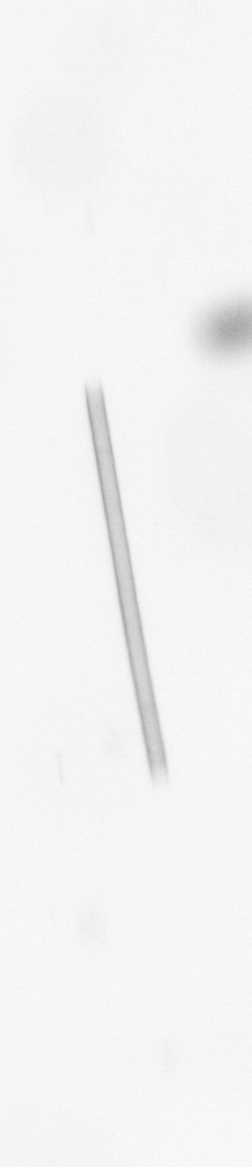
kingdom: Chromista
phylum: Ochrophyta
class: Bacillariophyceae
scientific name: Bacillariophyceae
